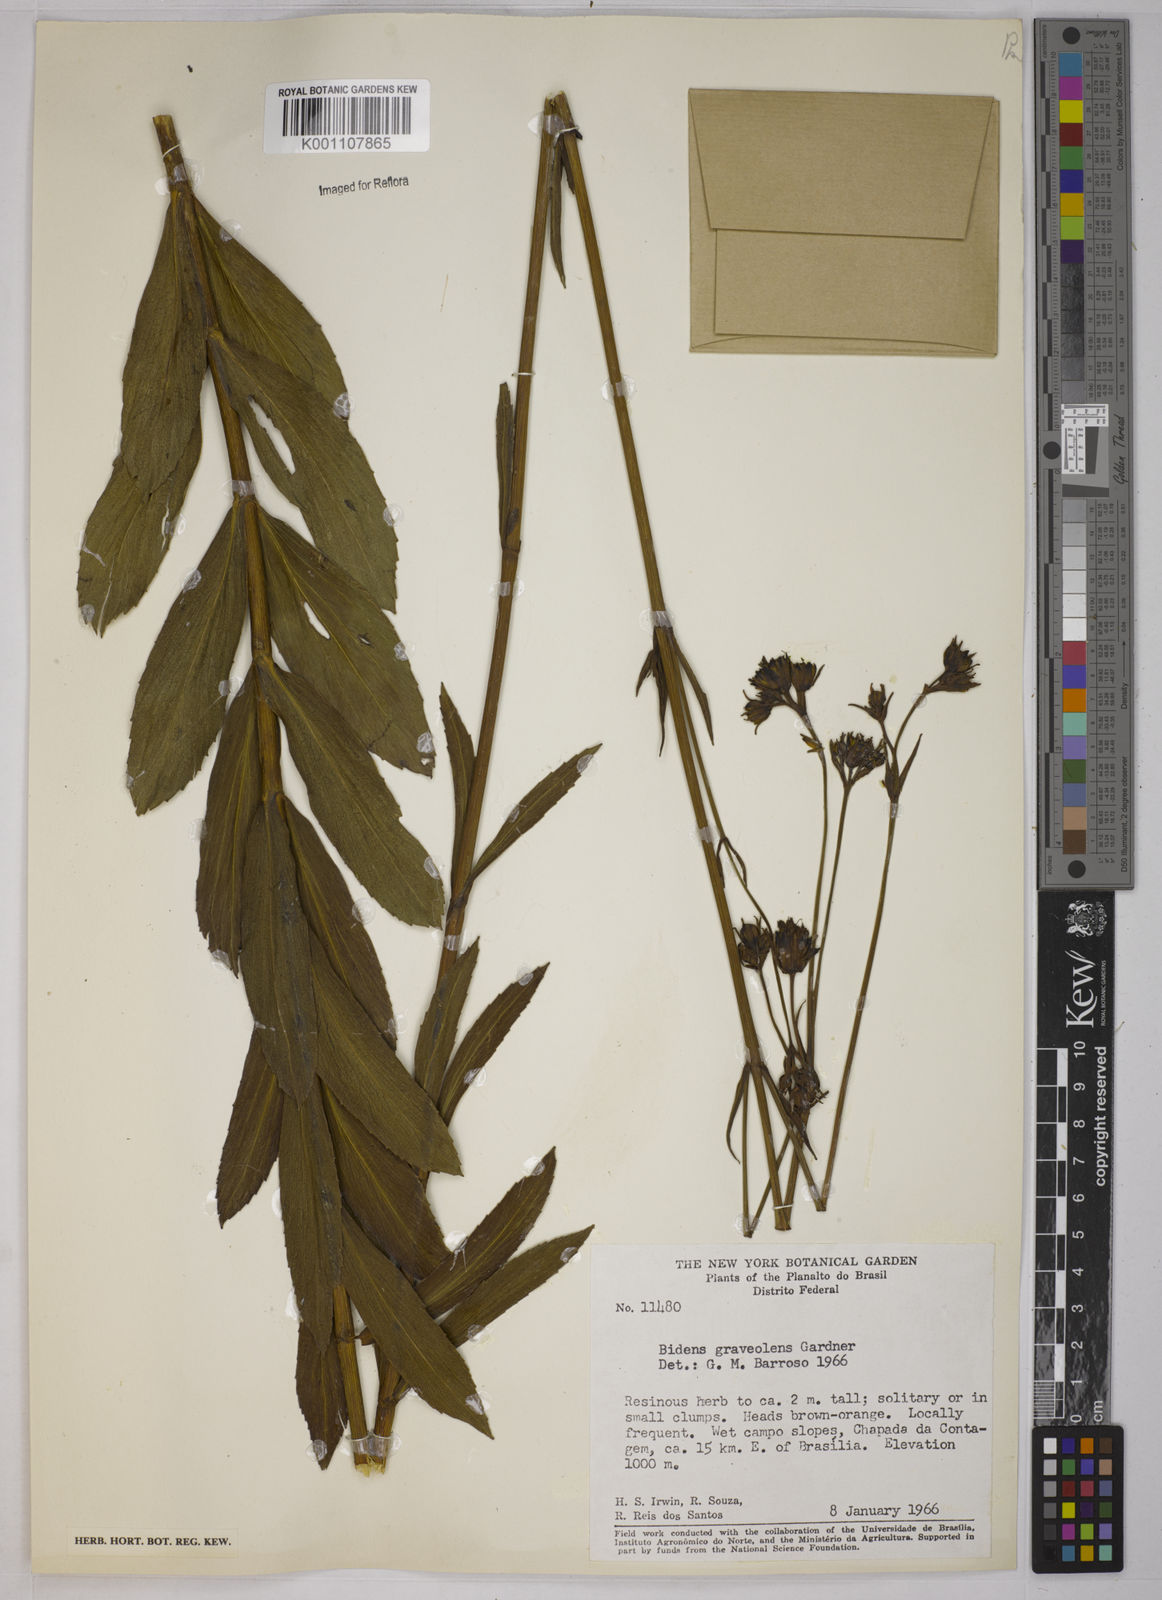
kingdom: Plantae
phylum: Tracheophyta
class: Magnoliopsida
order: Asterales
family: Asteraceae
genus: Bidens
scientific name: Bidens
